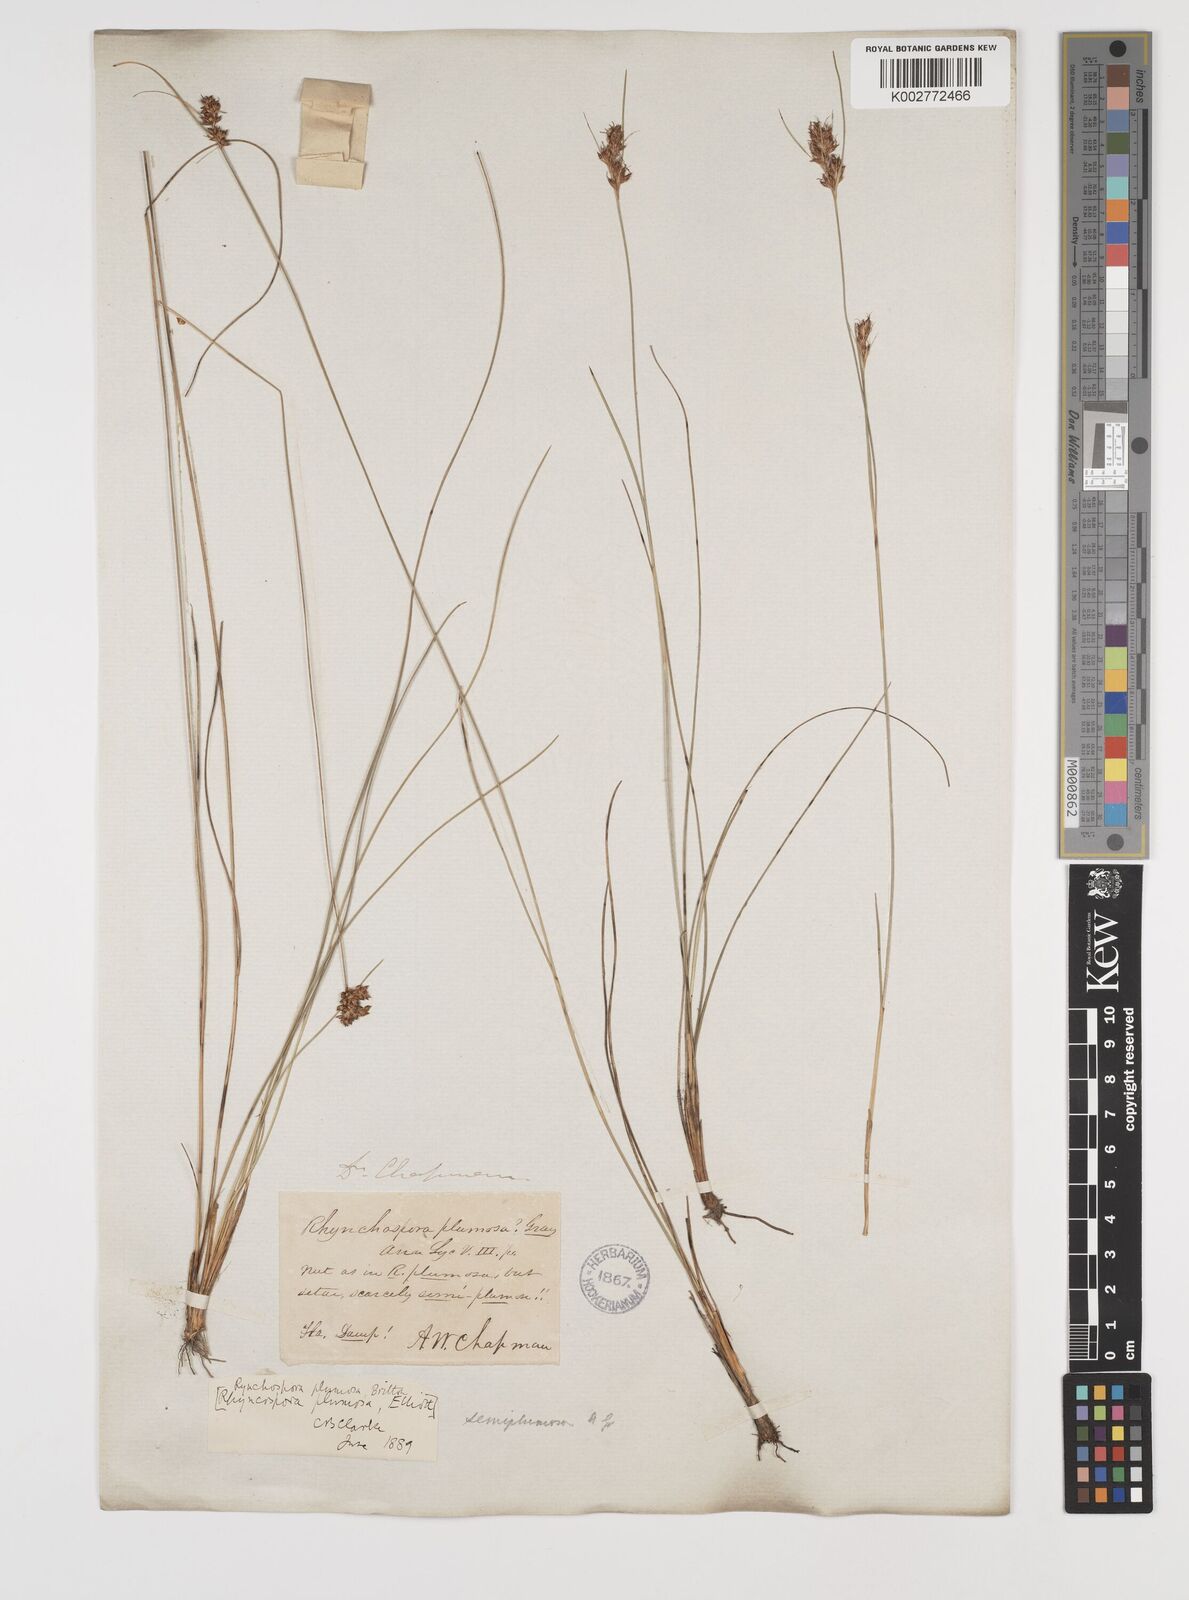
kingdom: Plantae
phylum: Tracheophyta
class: Liliopsida
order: Poales
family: Cyperaceae
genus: Rhynchospora
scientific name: Rhynchospora plumosa
